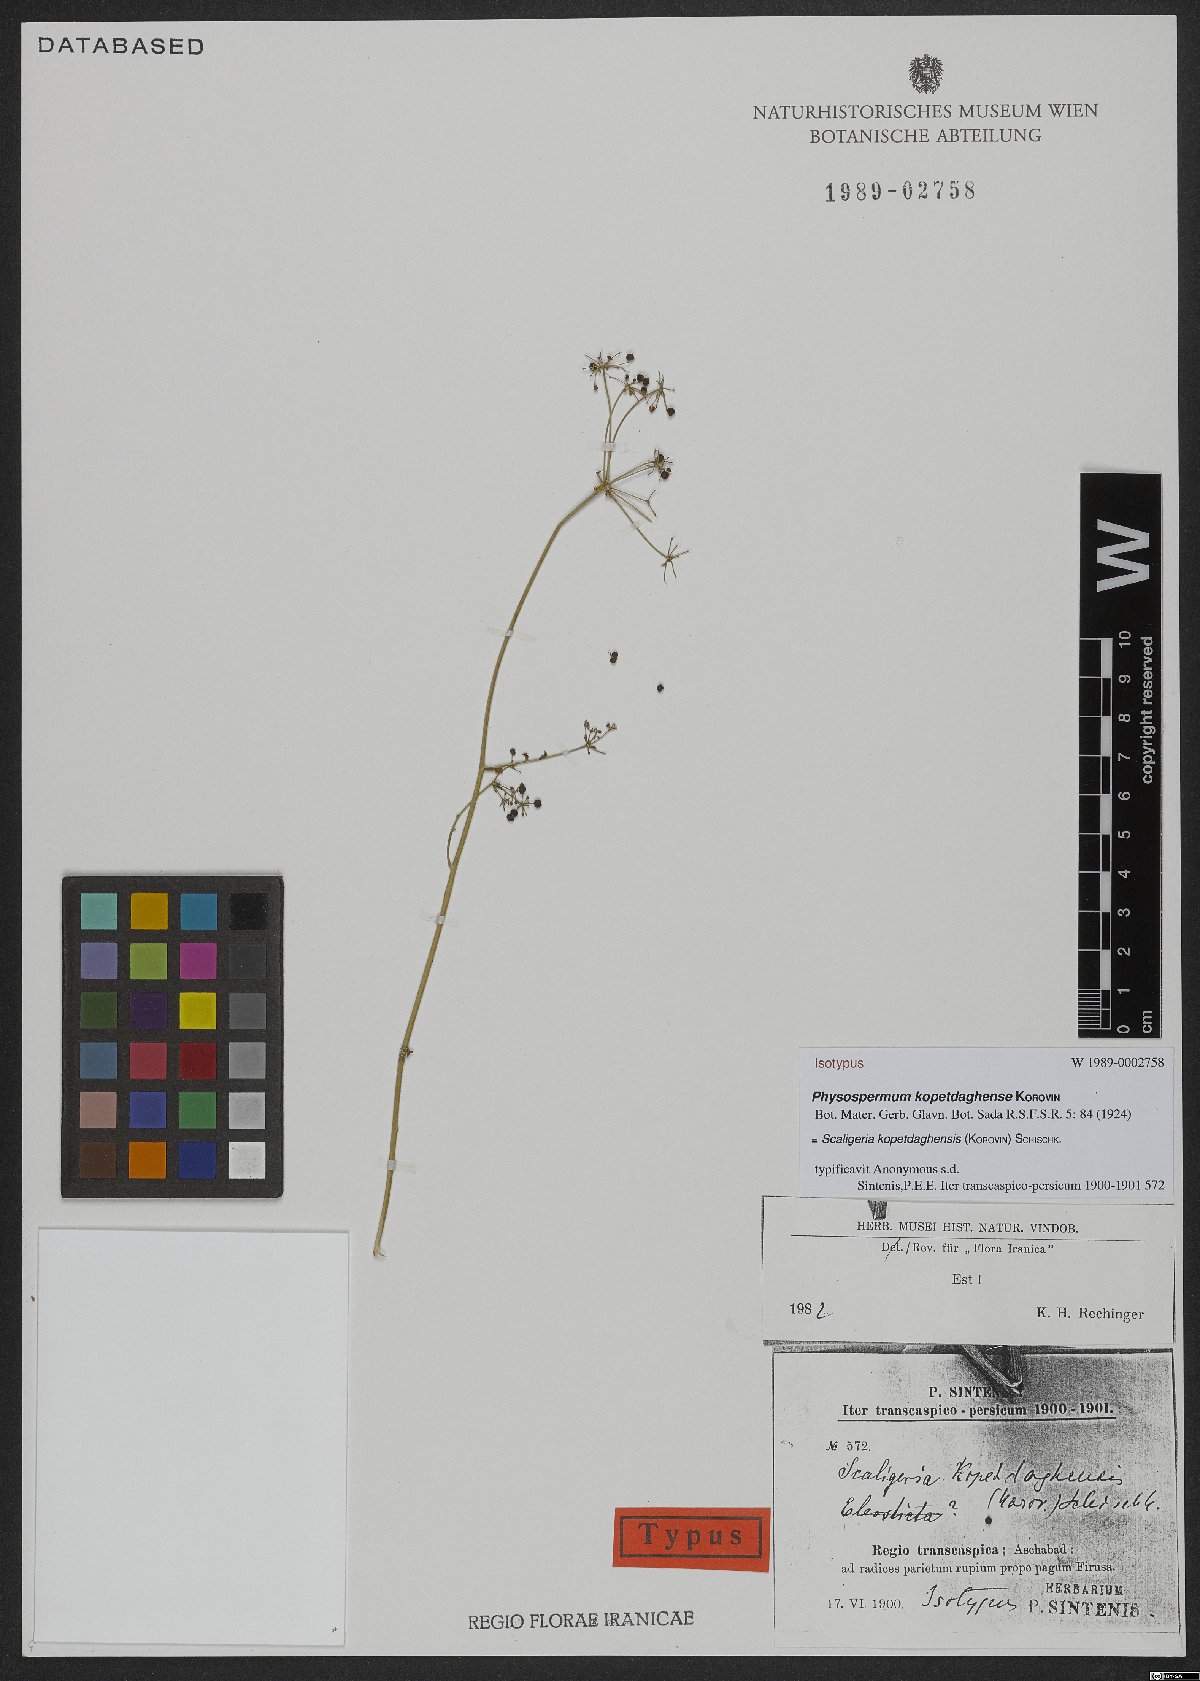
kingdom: Plantae
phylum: Tracheophyta
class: Magnoliopsida
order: Apiales
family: Apiaceae
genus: Pseudotrachydium
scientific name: Pseudotrachydium kopetdagense
